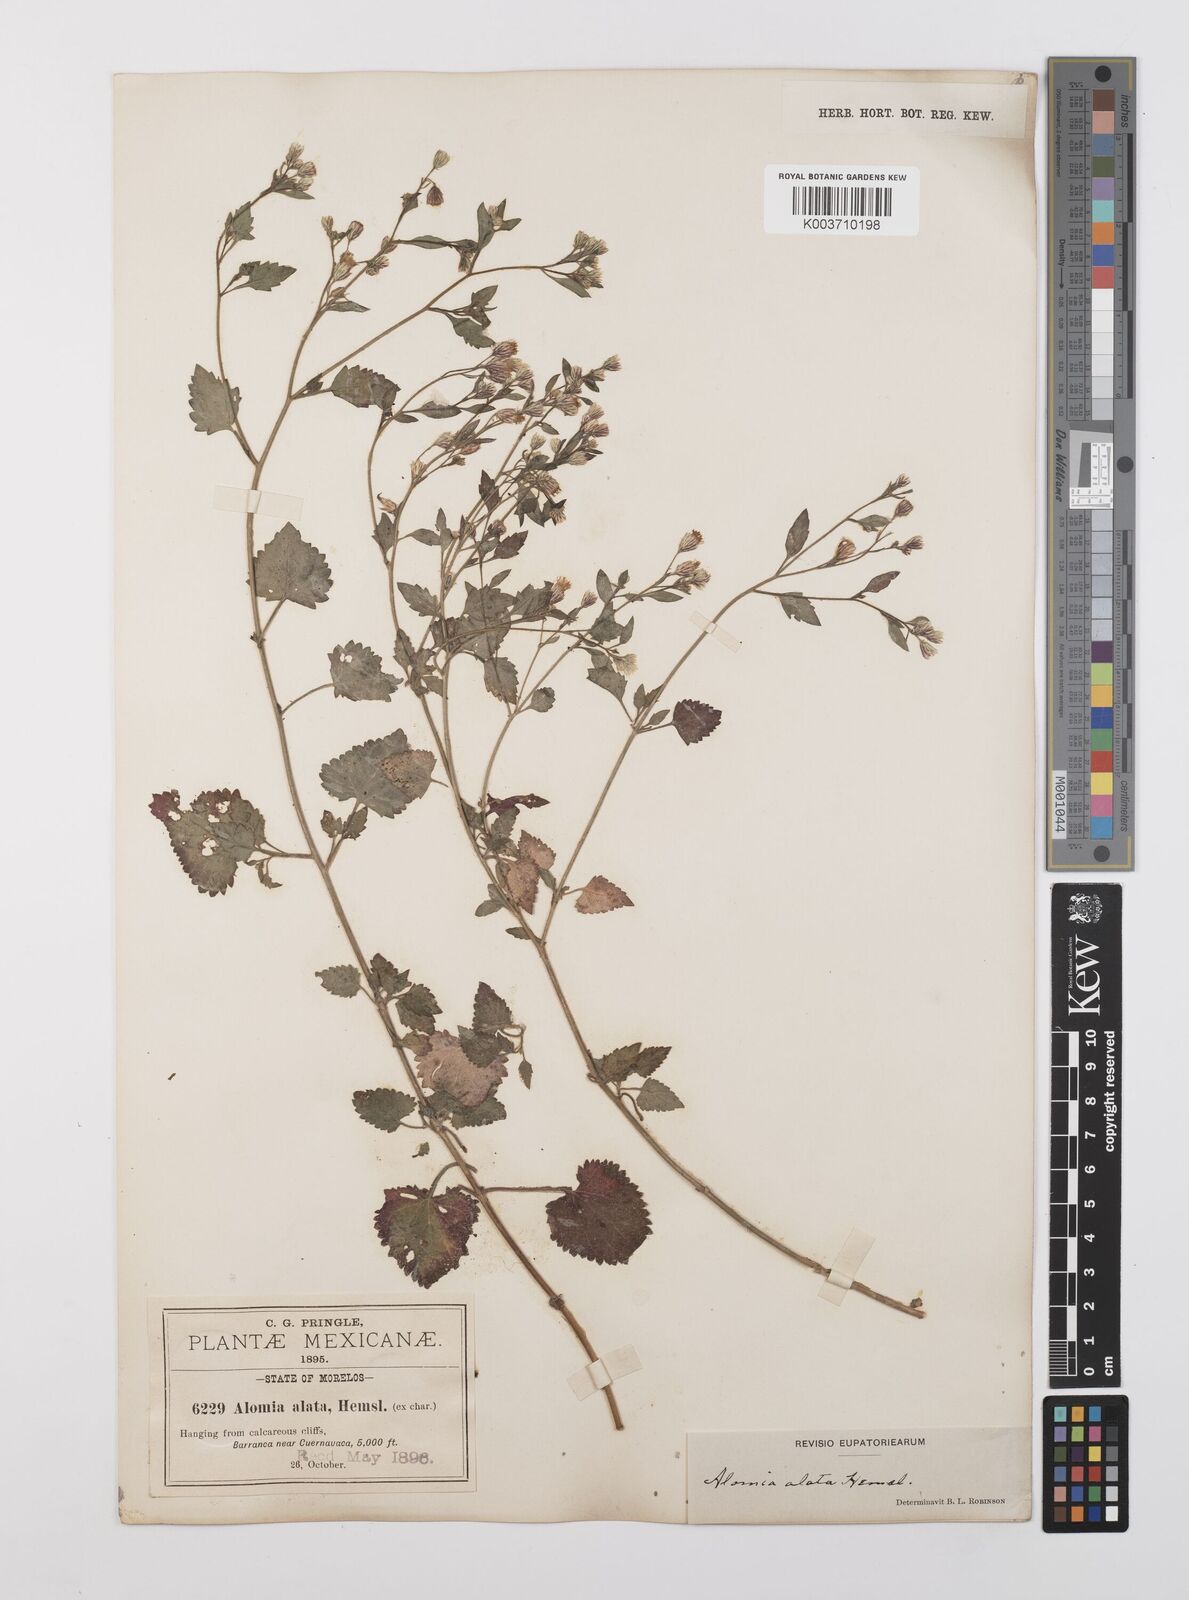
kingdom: Plantae
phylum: Tracheophyta
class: Magnoliopsida
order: Asterales
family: Asteraceae
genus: Alomia
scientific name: Alomia alata
